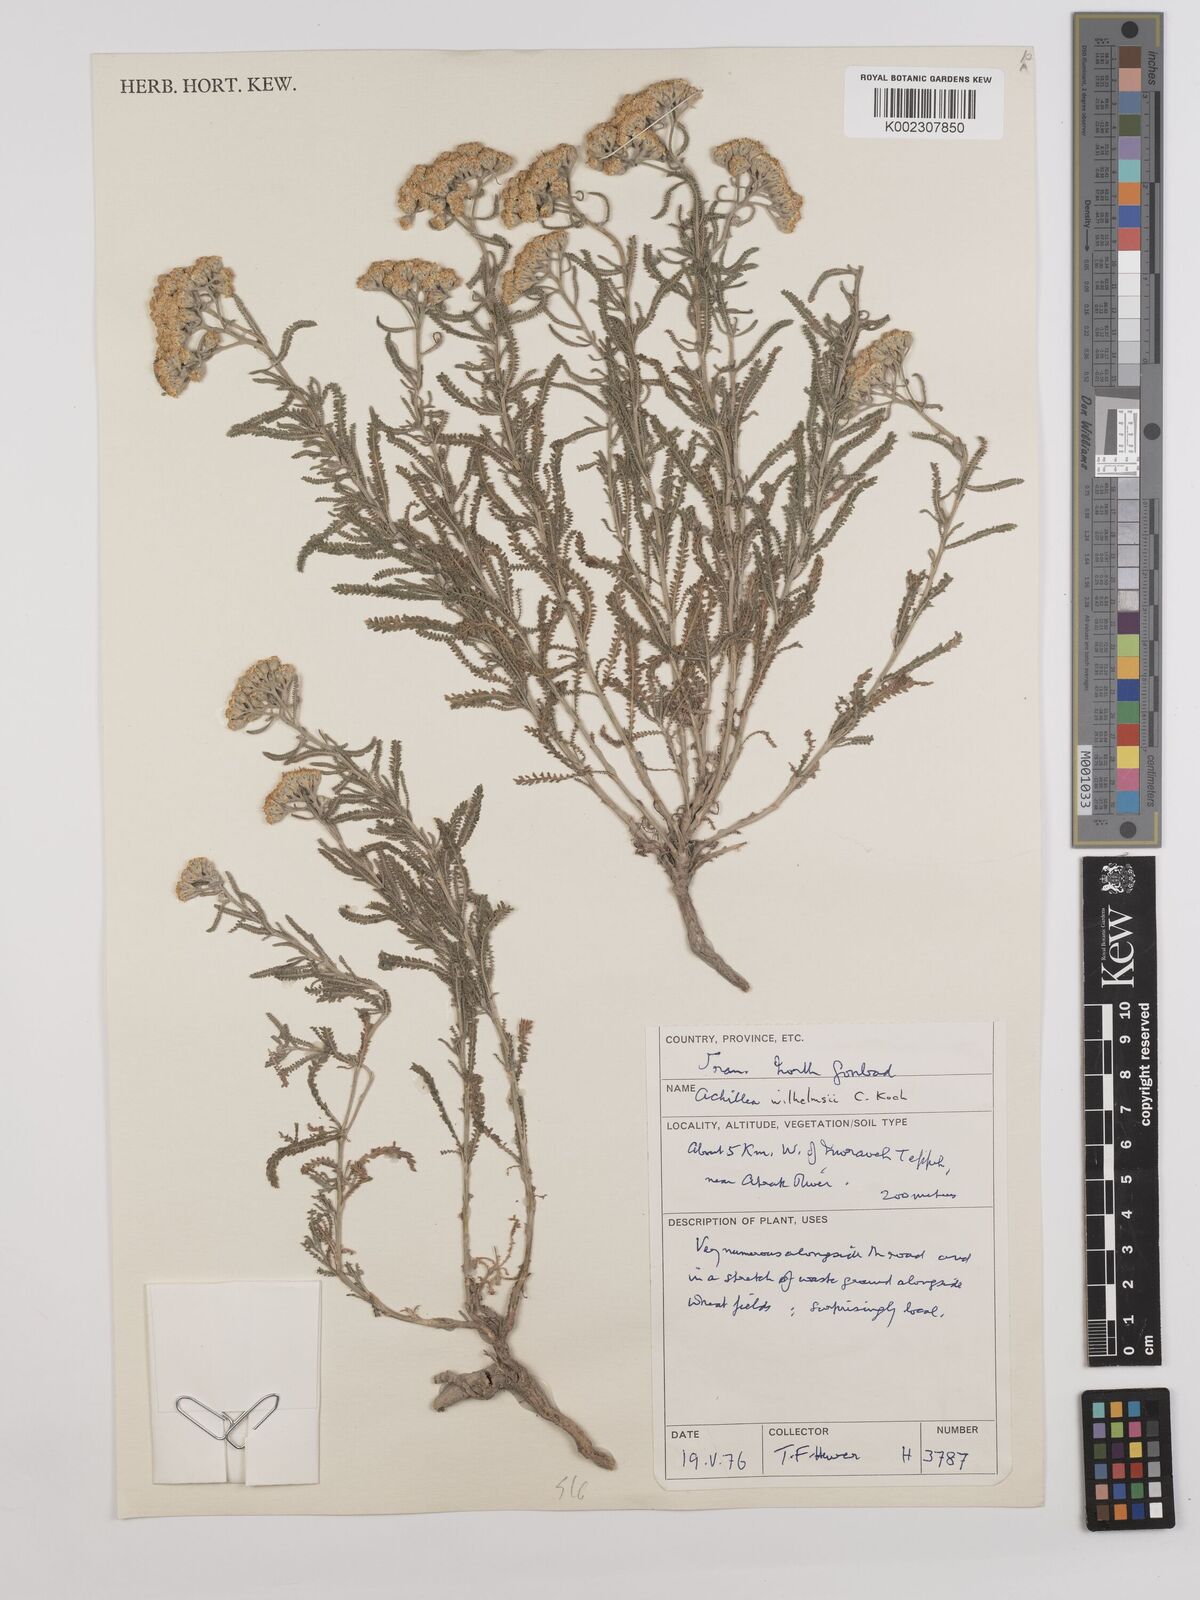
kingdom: Plantae
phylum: Tracheophyta
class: Magnoliopsida
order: Asterales
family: Asteraceae
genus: Achillea
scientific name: Achillea wilhelmsii
